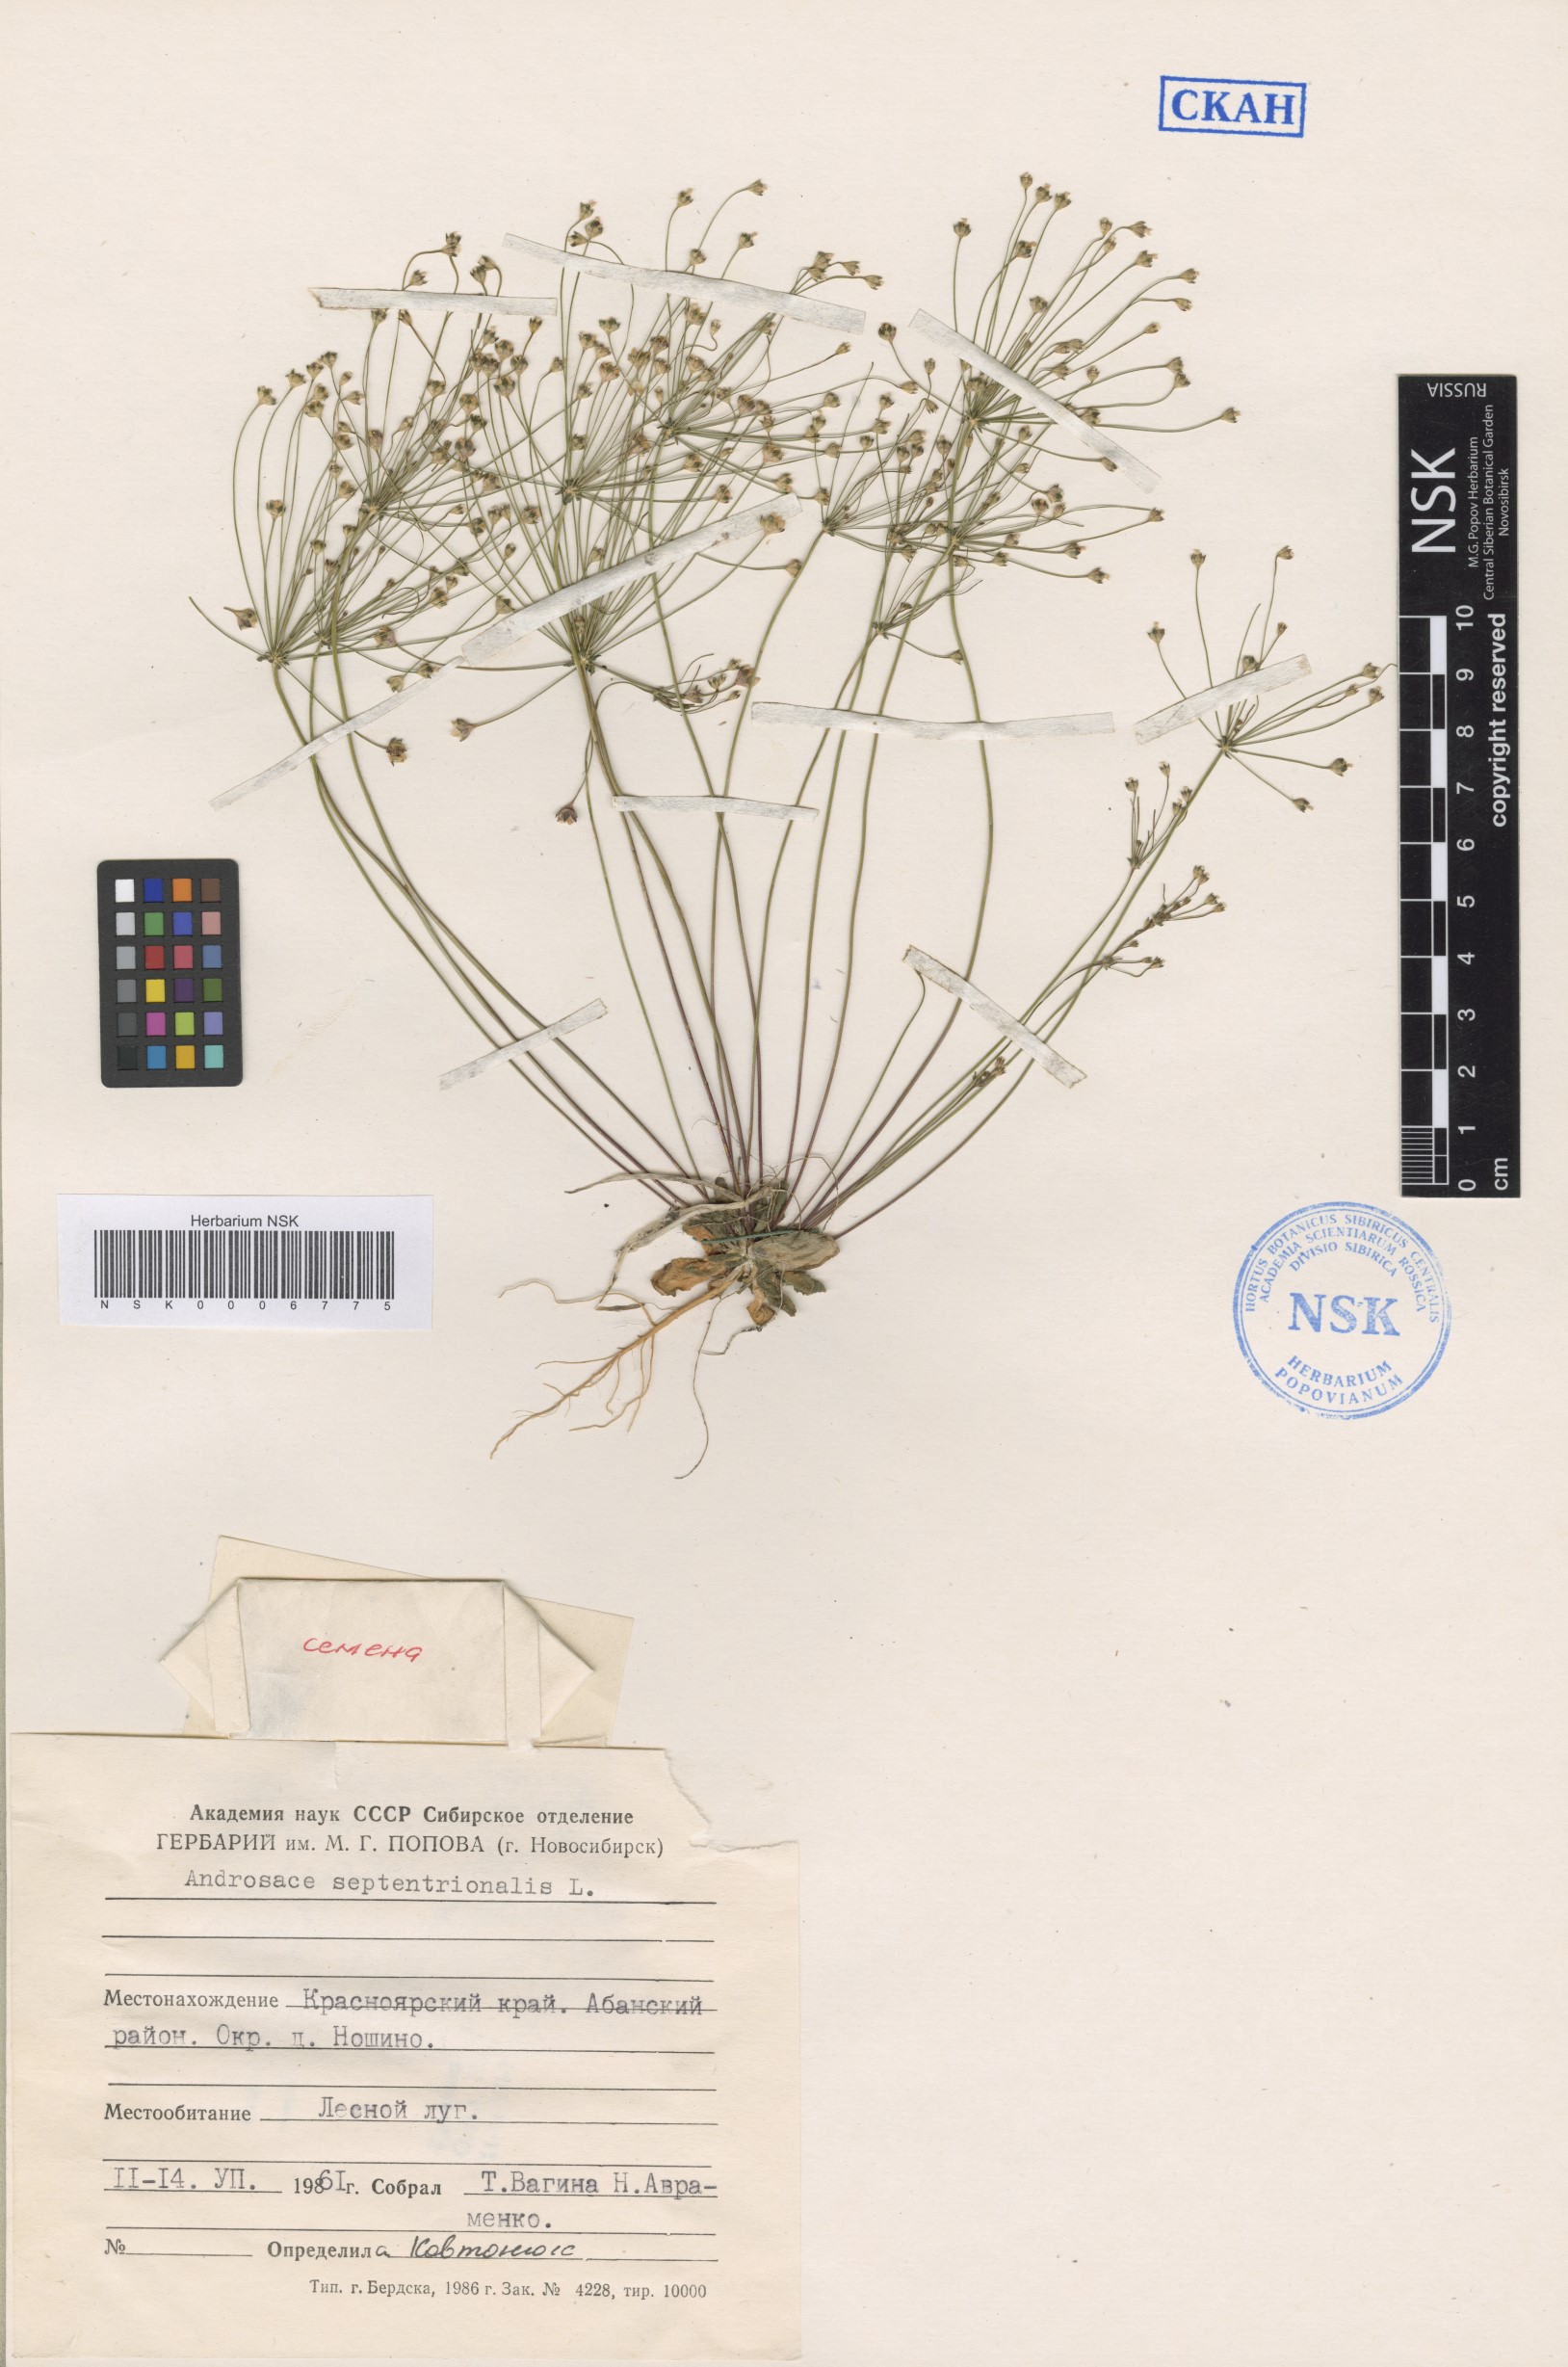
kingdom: Plantae
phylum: Tracheophyta
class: Magnoliopsida
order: Ericales
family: Primulaceae
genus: Androsace
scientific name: Androsace septentrionalis
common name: Hairy northern fairy-candelabra
